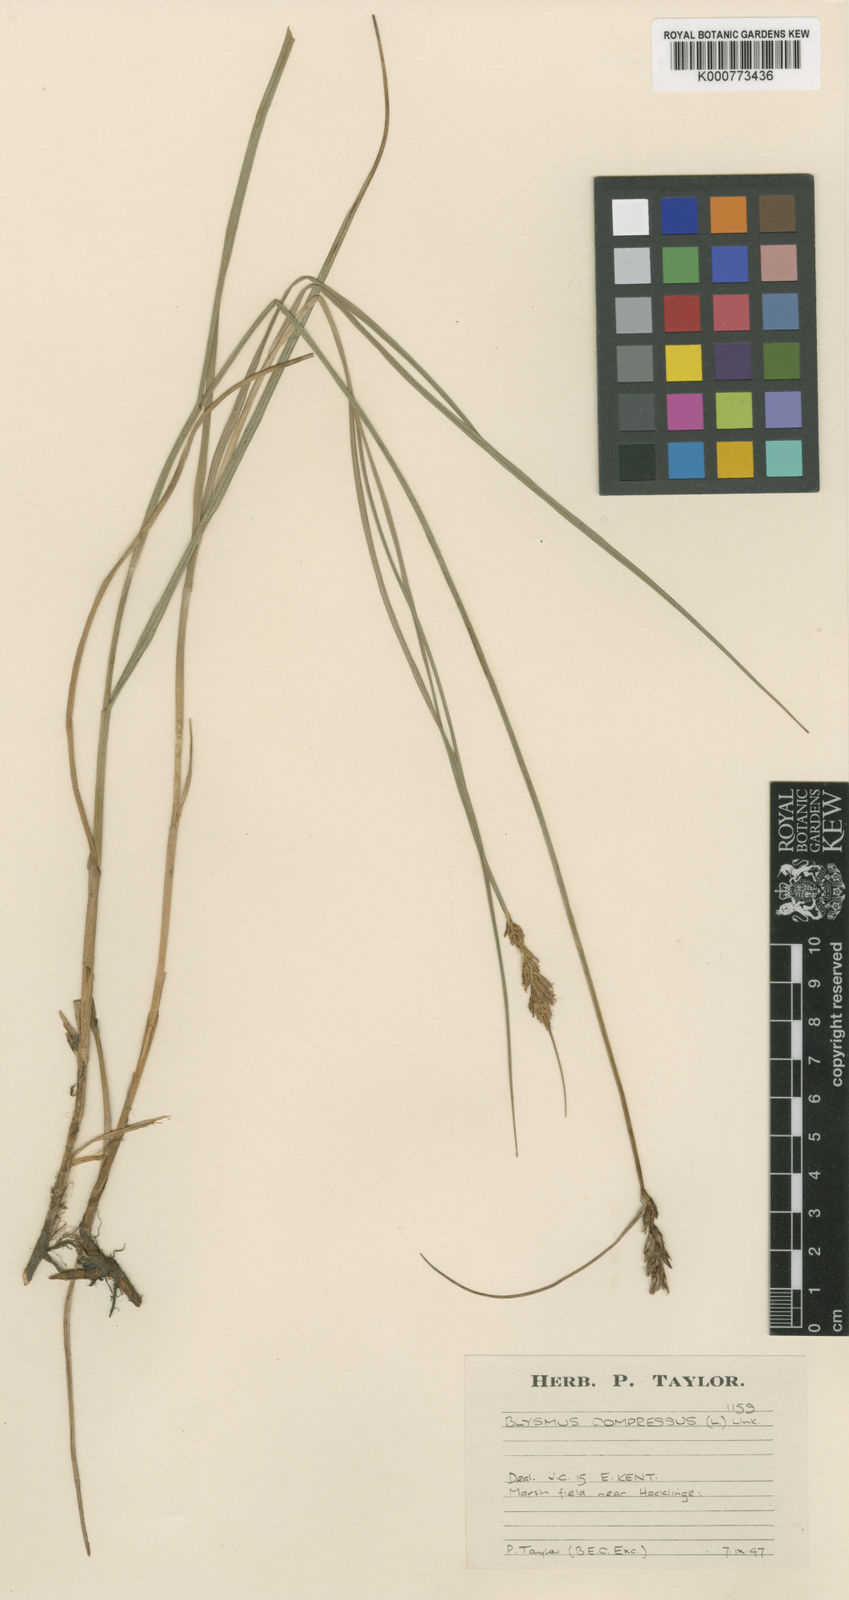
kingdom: Plantae
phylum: Tracheophyta
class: Liliopsida
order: Poales
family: Cyperaceae
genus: Blysmus
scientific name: Blysmus compressus
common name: Flat-sedge
